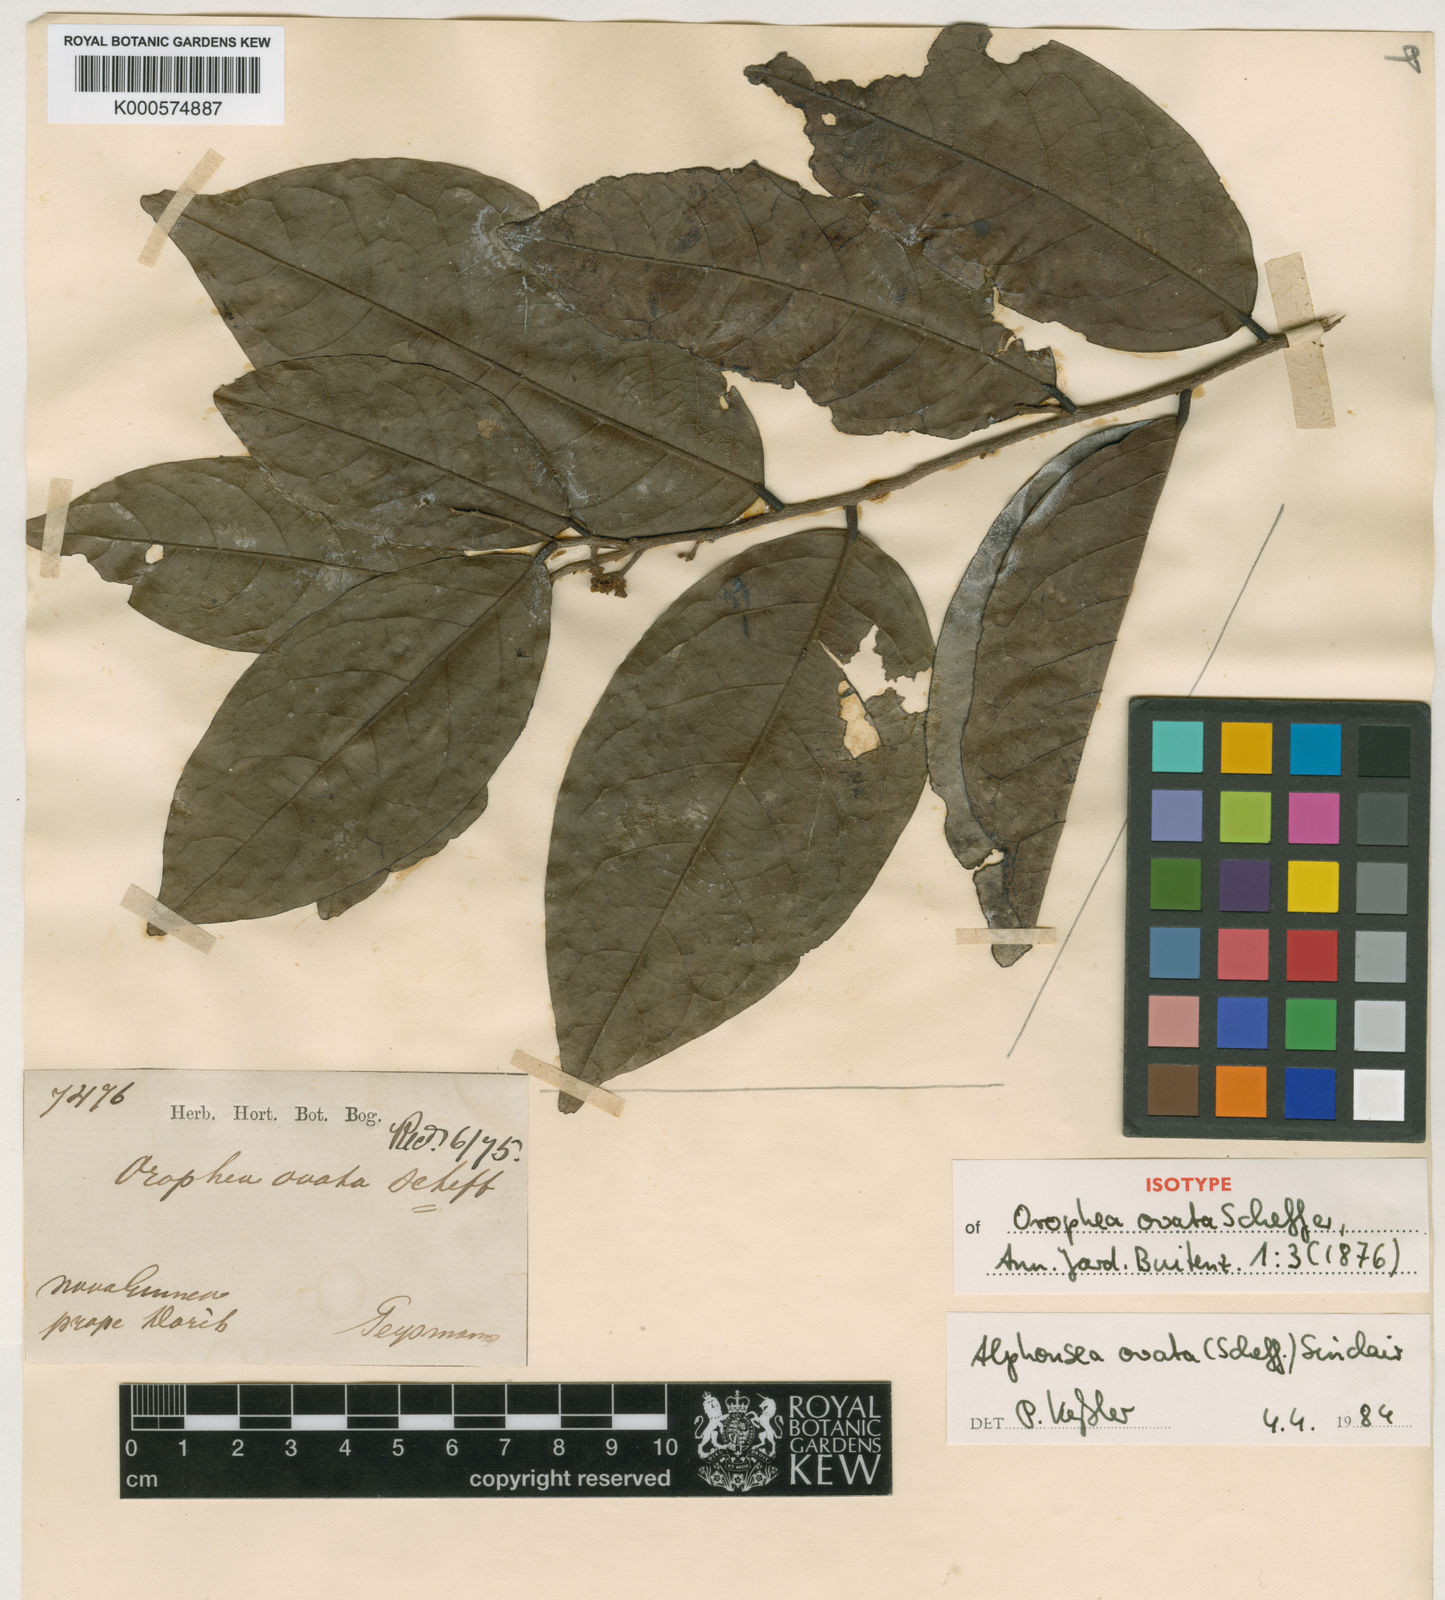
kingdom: Plantae
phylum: Tracheophyta
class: Magnoliopsida
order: Magnoliales
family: Annonaceae
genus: Alphonsea
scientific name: Alphonsea ovata
